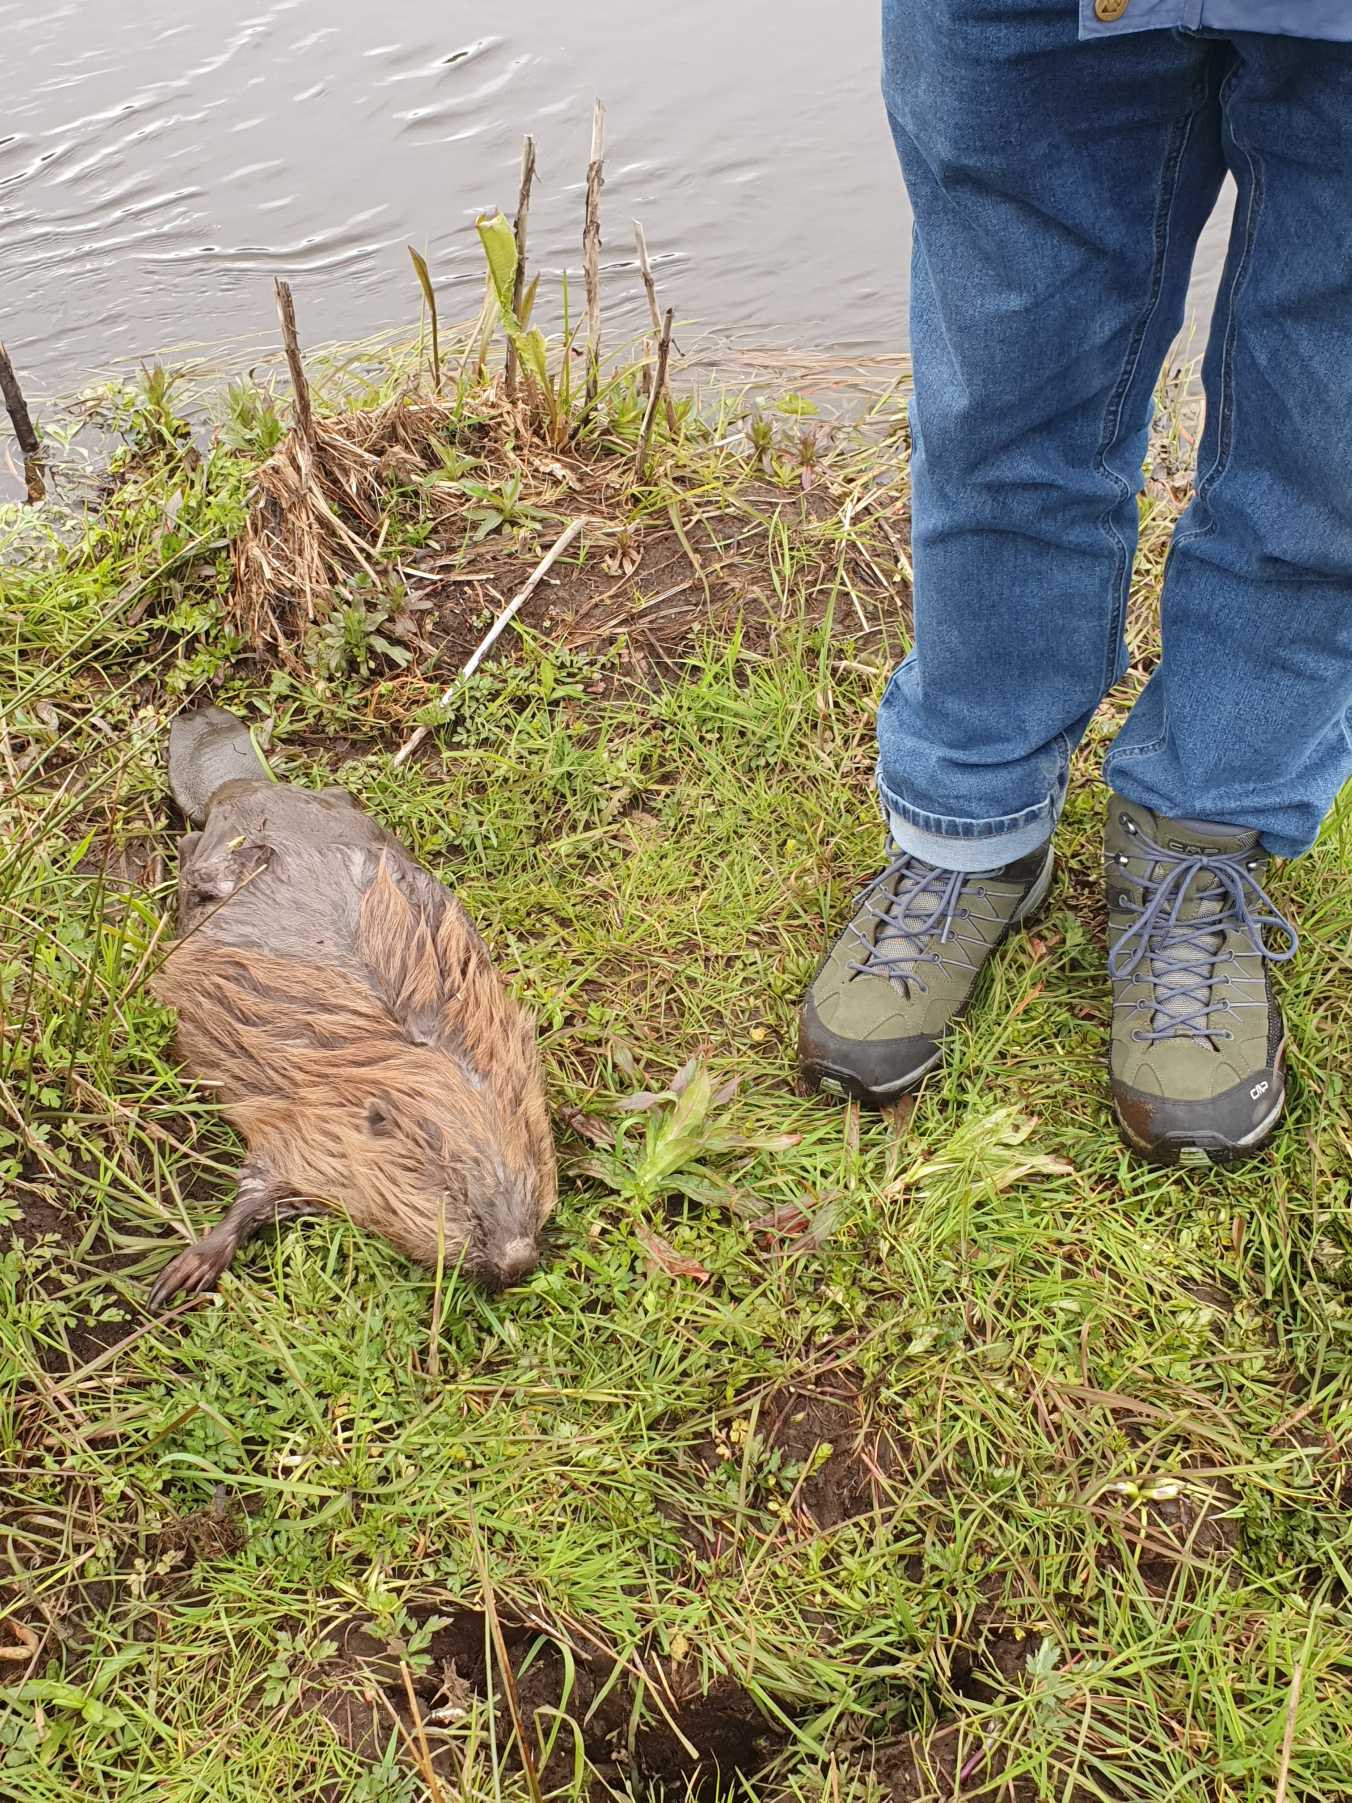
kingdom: Animalia
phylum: Chordata
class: Mammalia
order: Rodentia
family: Castoridae
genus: Castor
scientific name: Castor fiber
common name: Bæver
